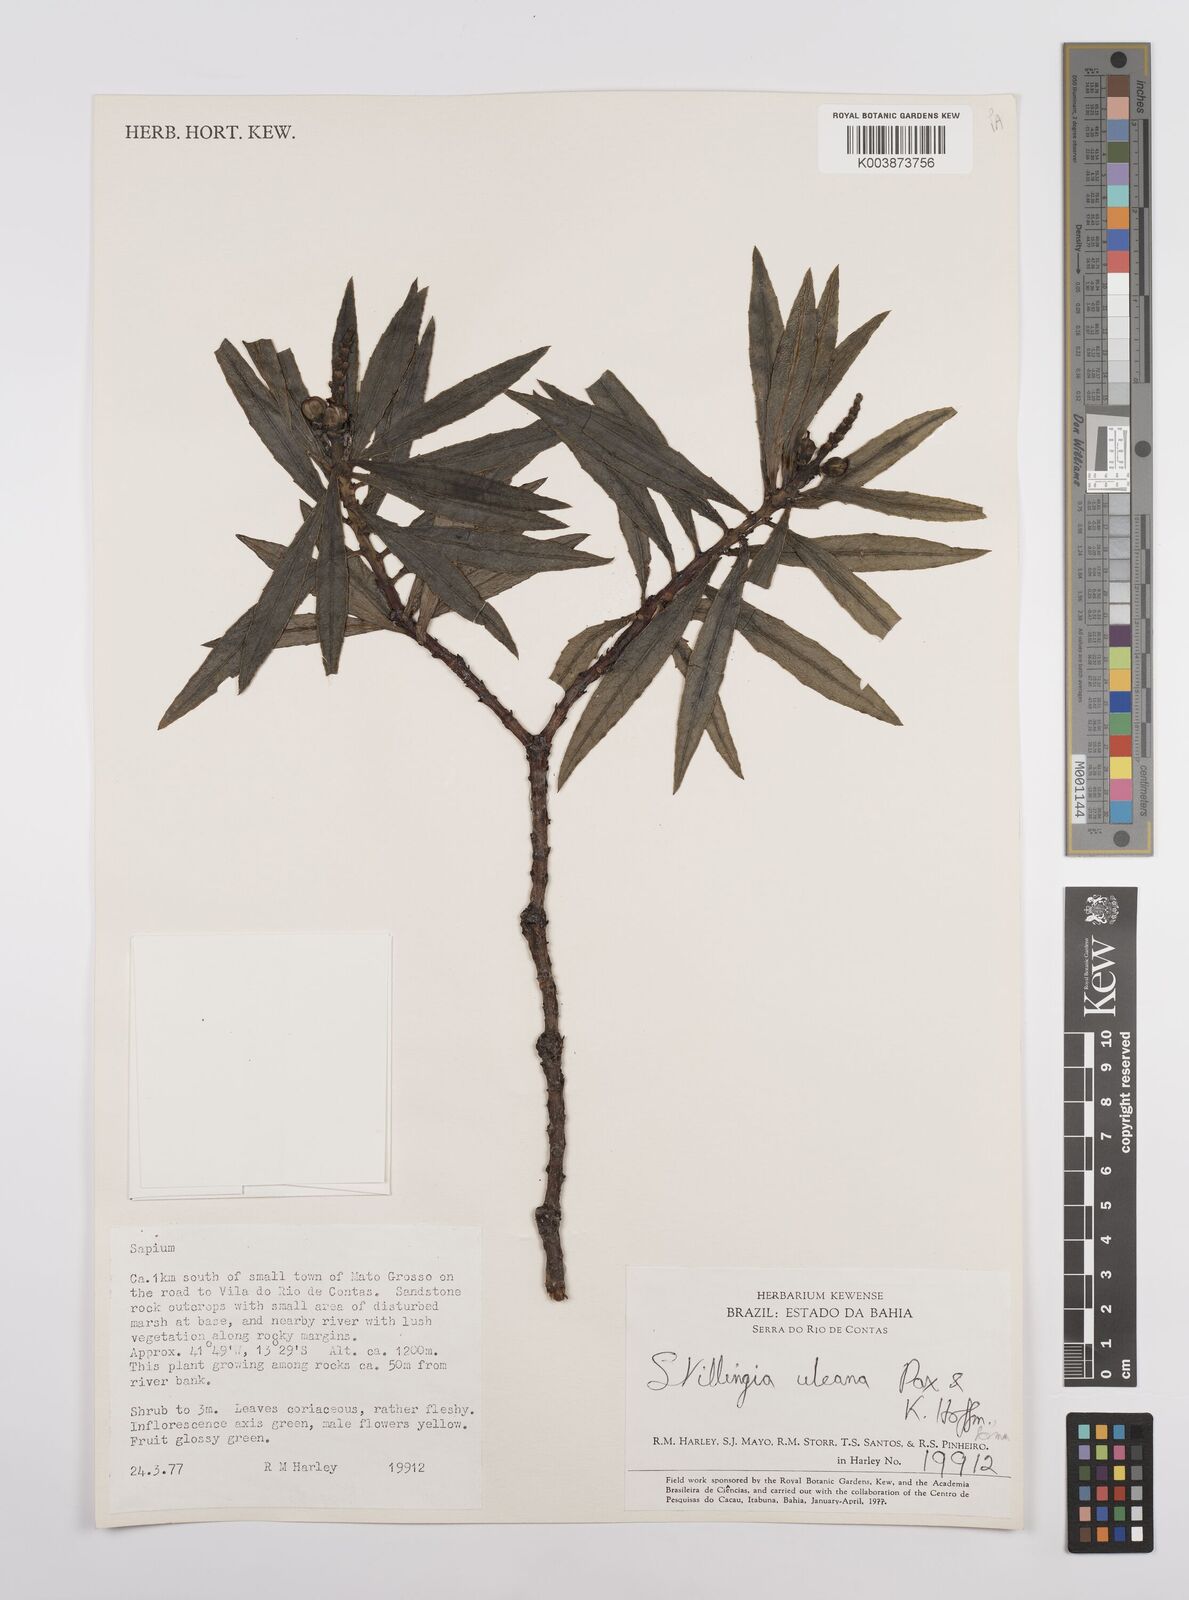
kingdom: Plantae
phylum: Tracheophyta
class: Magnoliopsida
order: Malpighiales
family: Euphorbiaceae
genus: Stillingia
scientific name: Stillingia uleana
